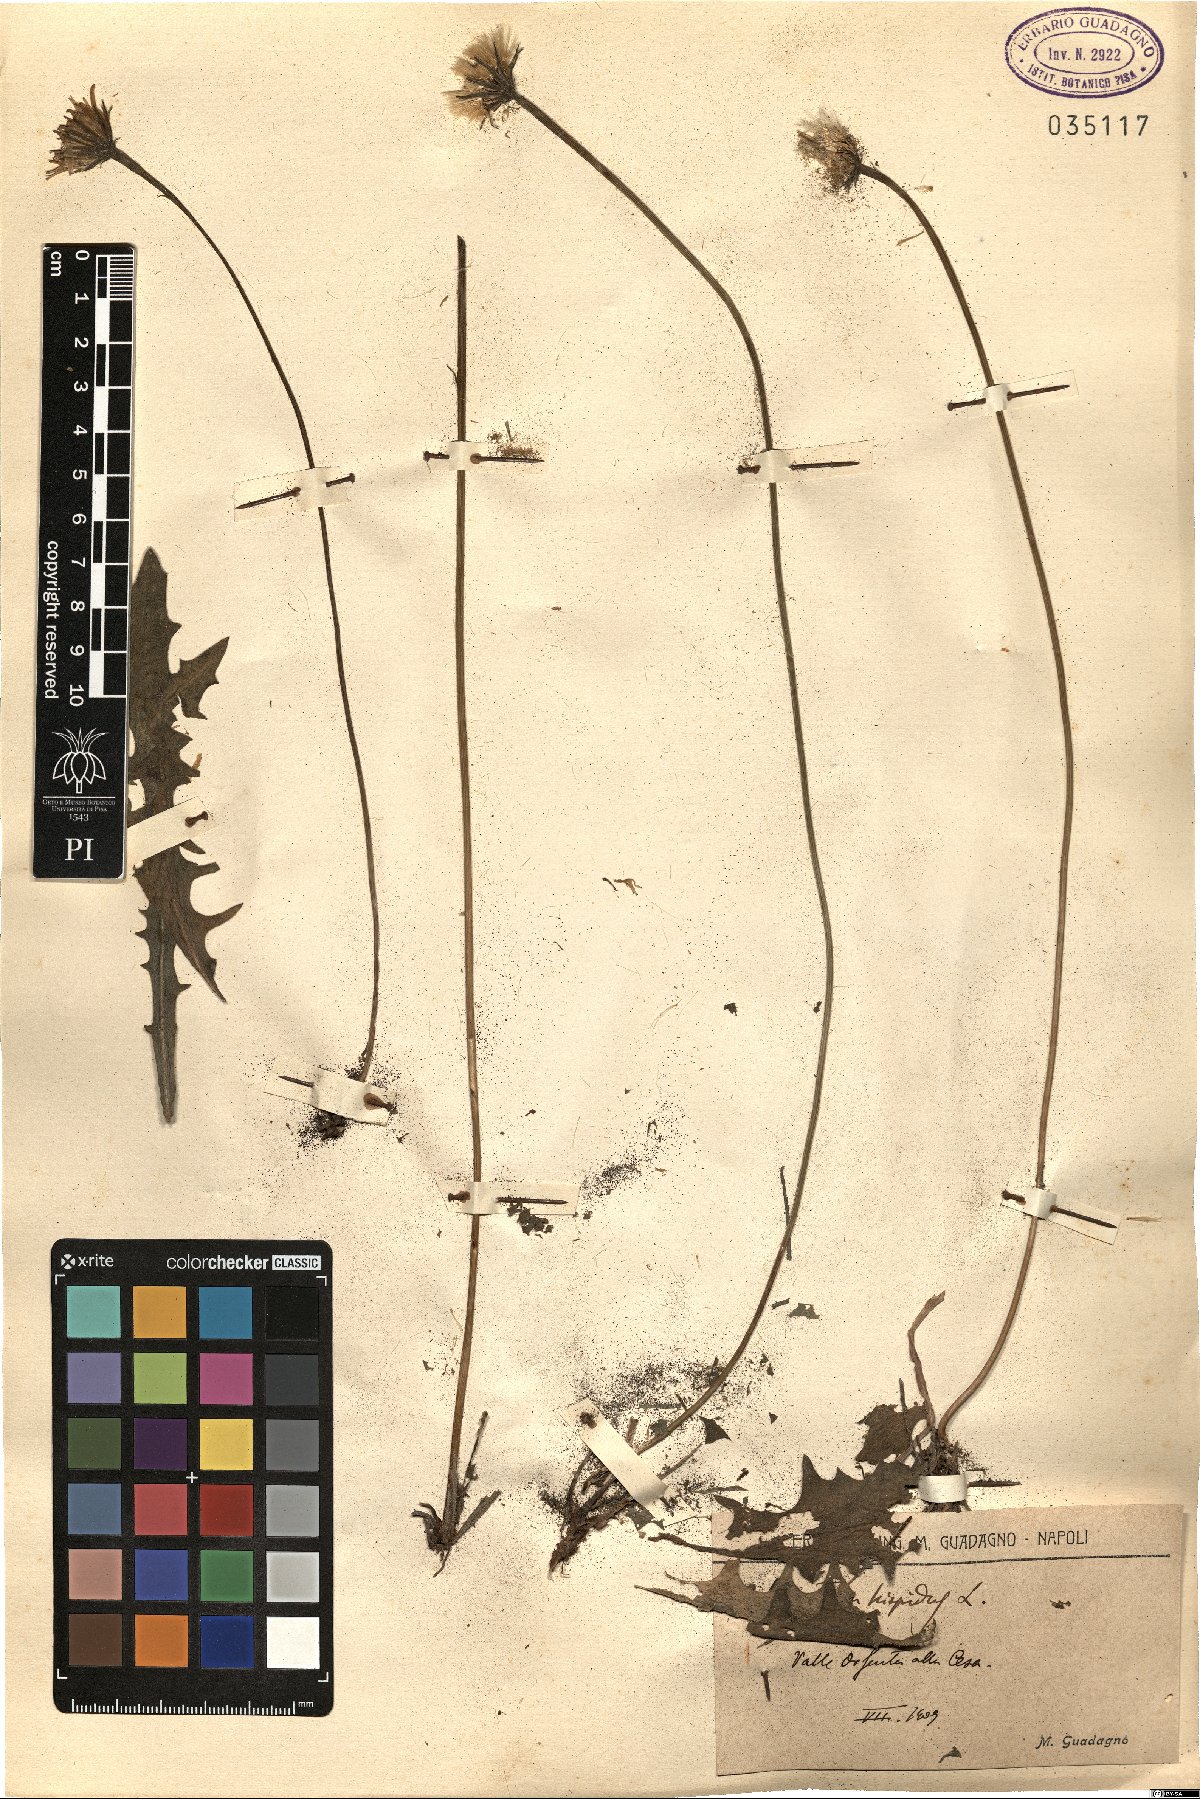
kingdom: Plantae
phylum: Tracheophyta
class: Magnoliopsida
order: Asterales
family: Asteraceae
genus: Leontodon
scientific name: Leontodon hispidus
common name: Rough hawkbit
